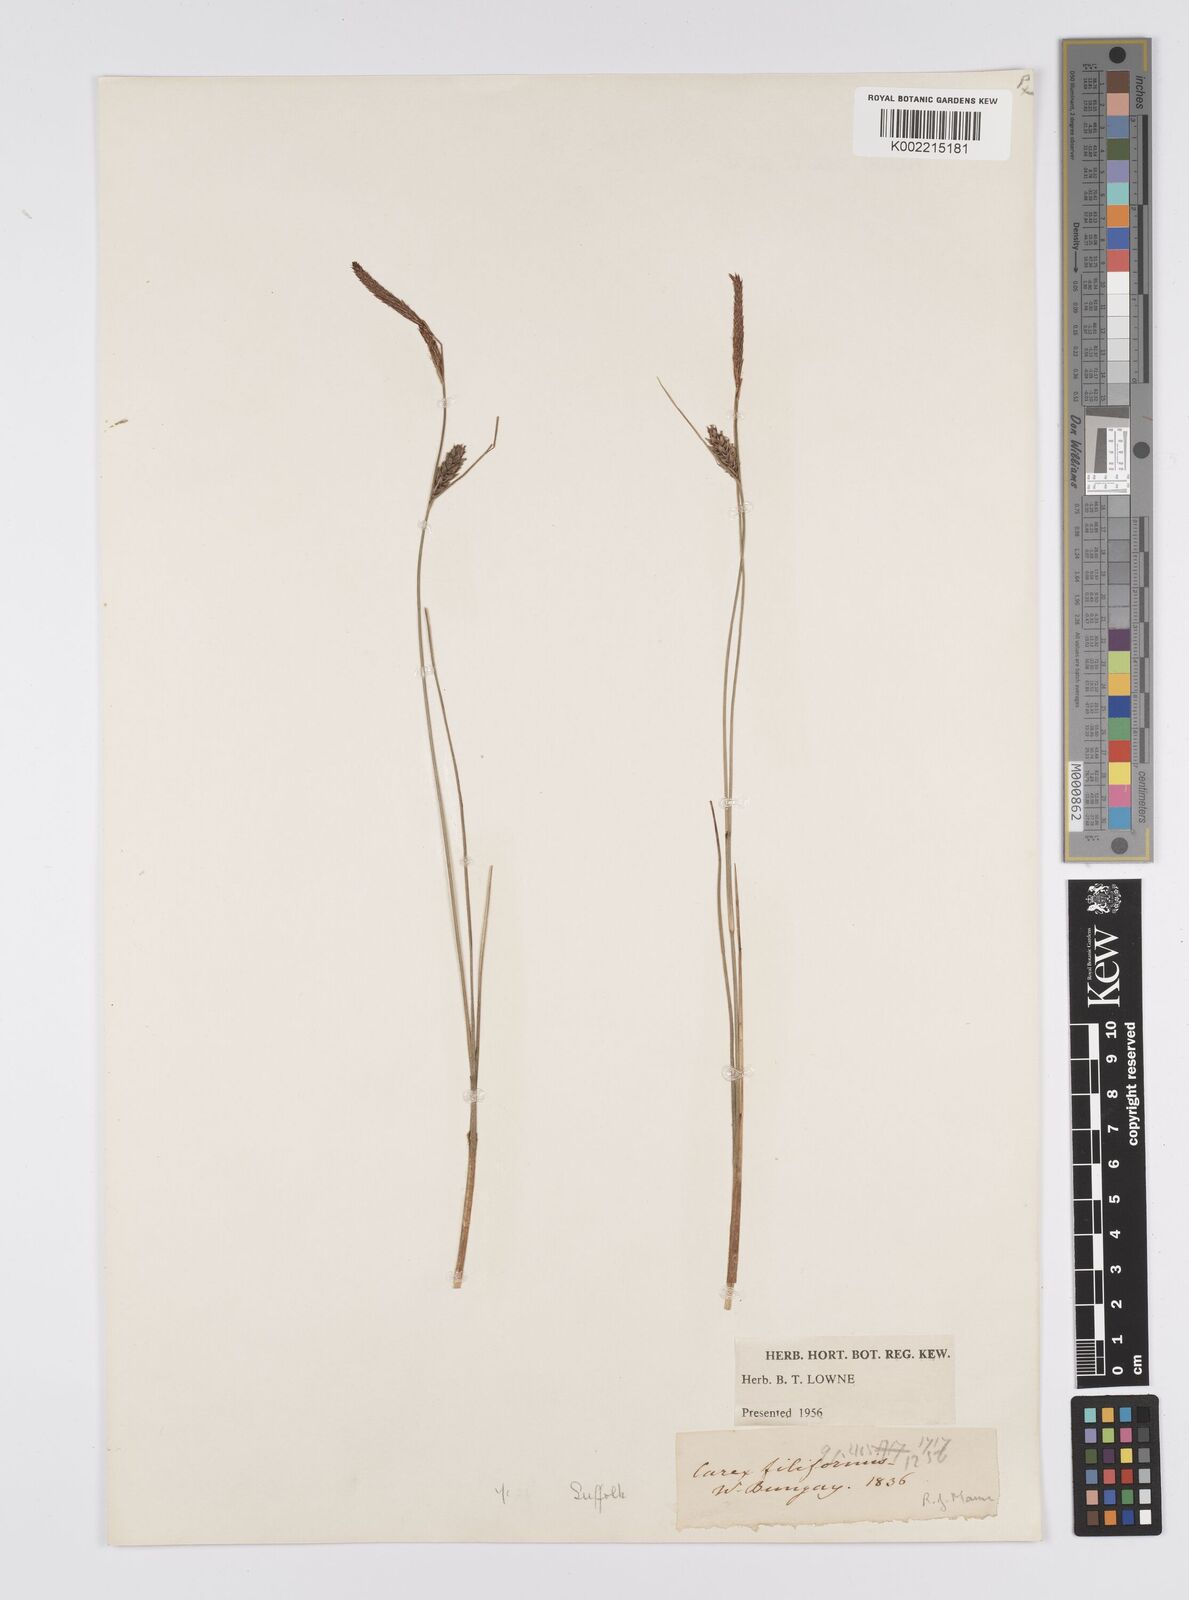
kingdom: Plantae
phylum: Tracheophyta
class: Liliopsida
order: Poales
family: Cyperaceae
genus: Carex
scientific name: Carex lasiocarpa
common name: Slender sedge
